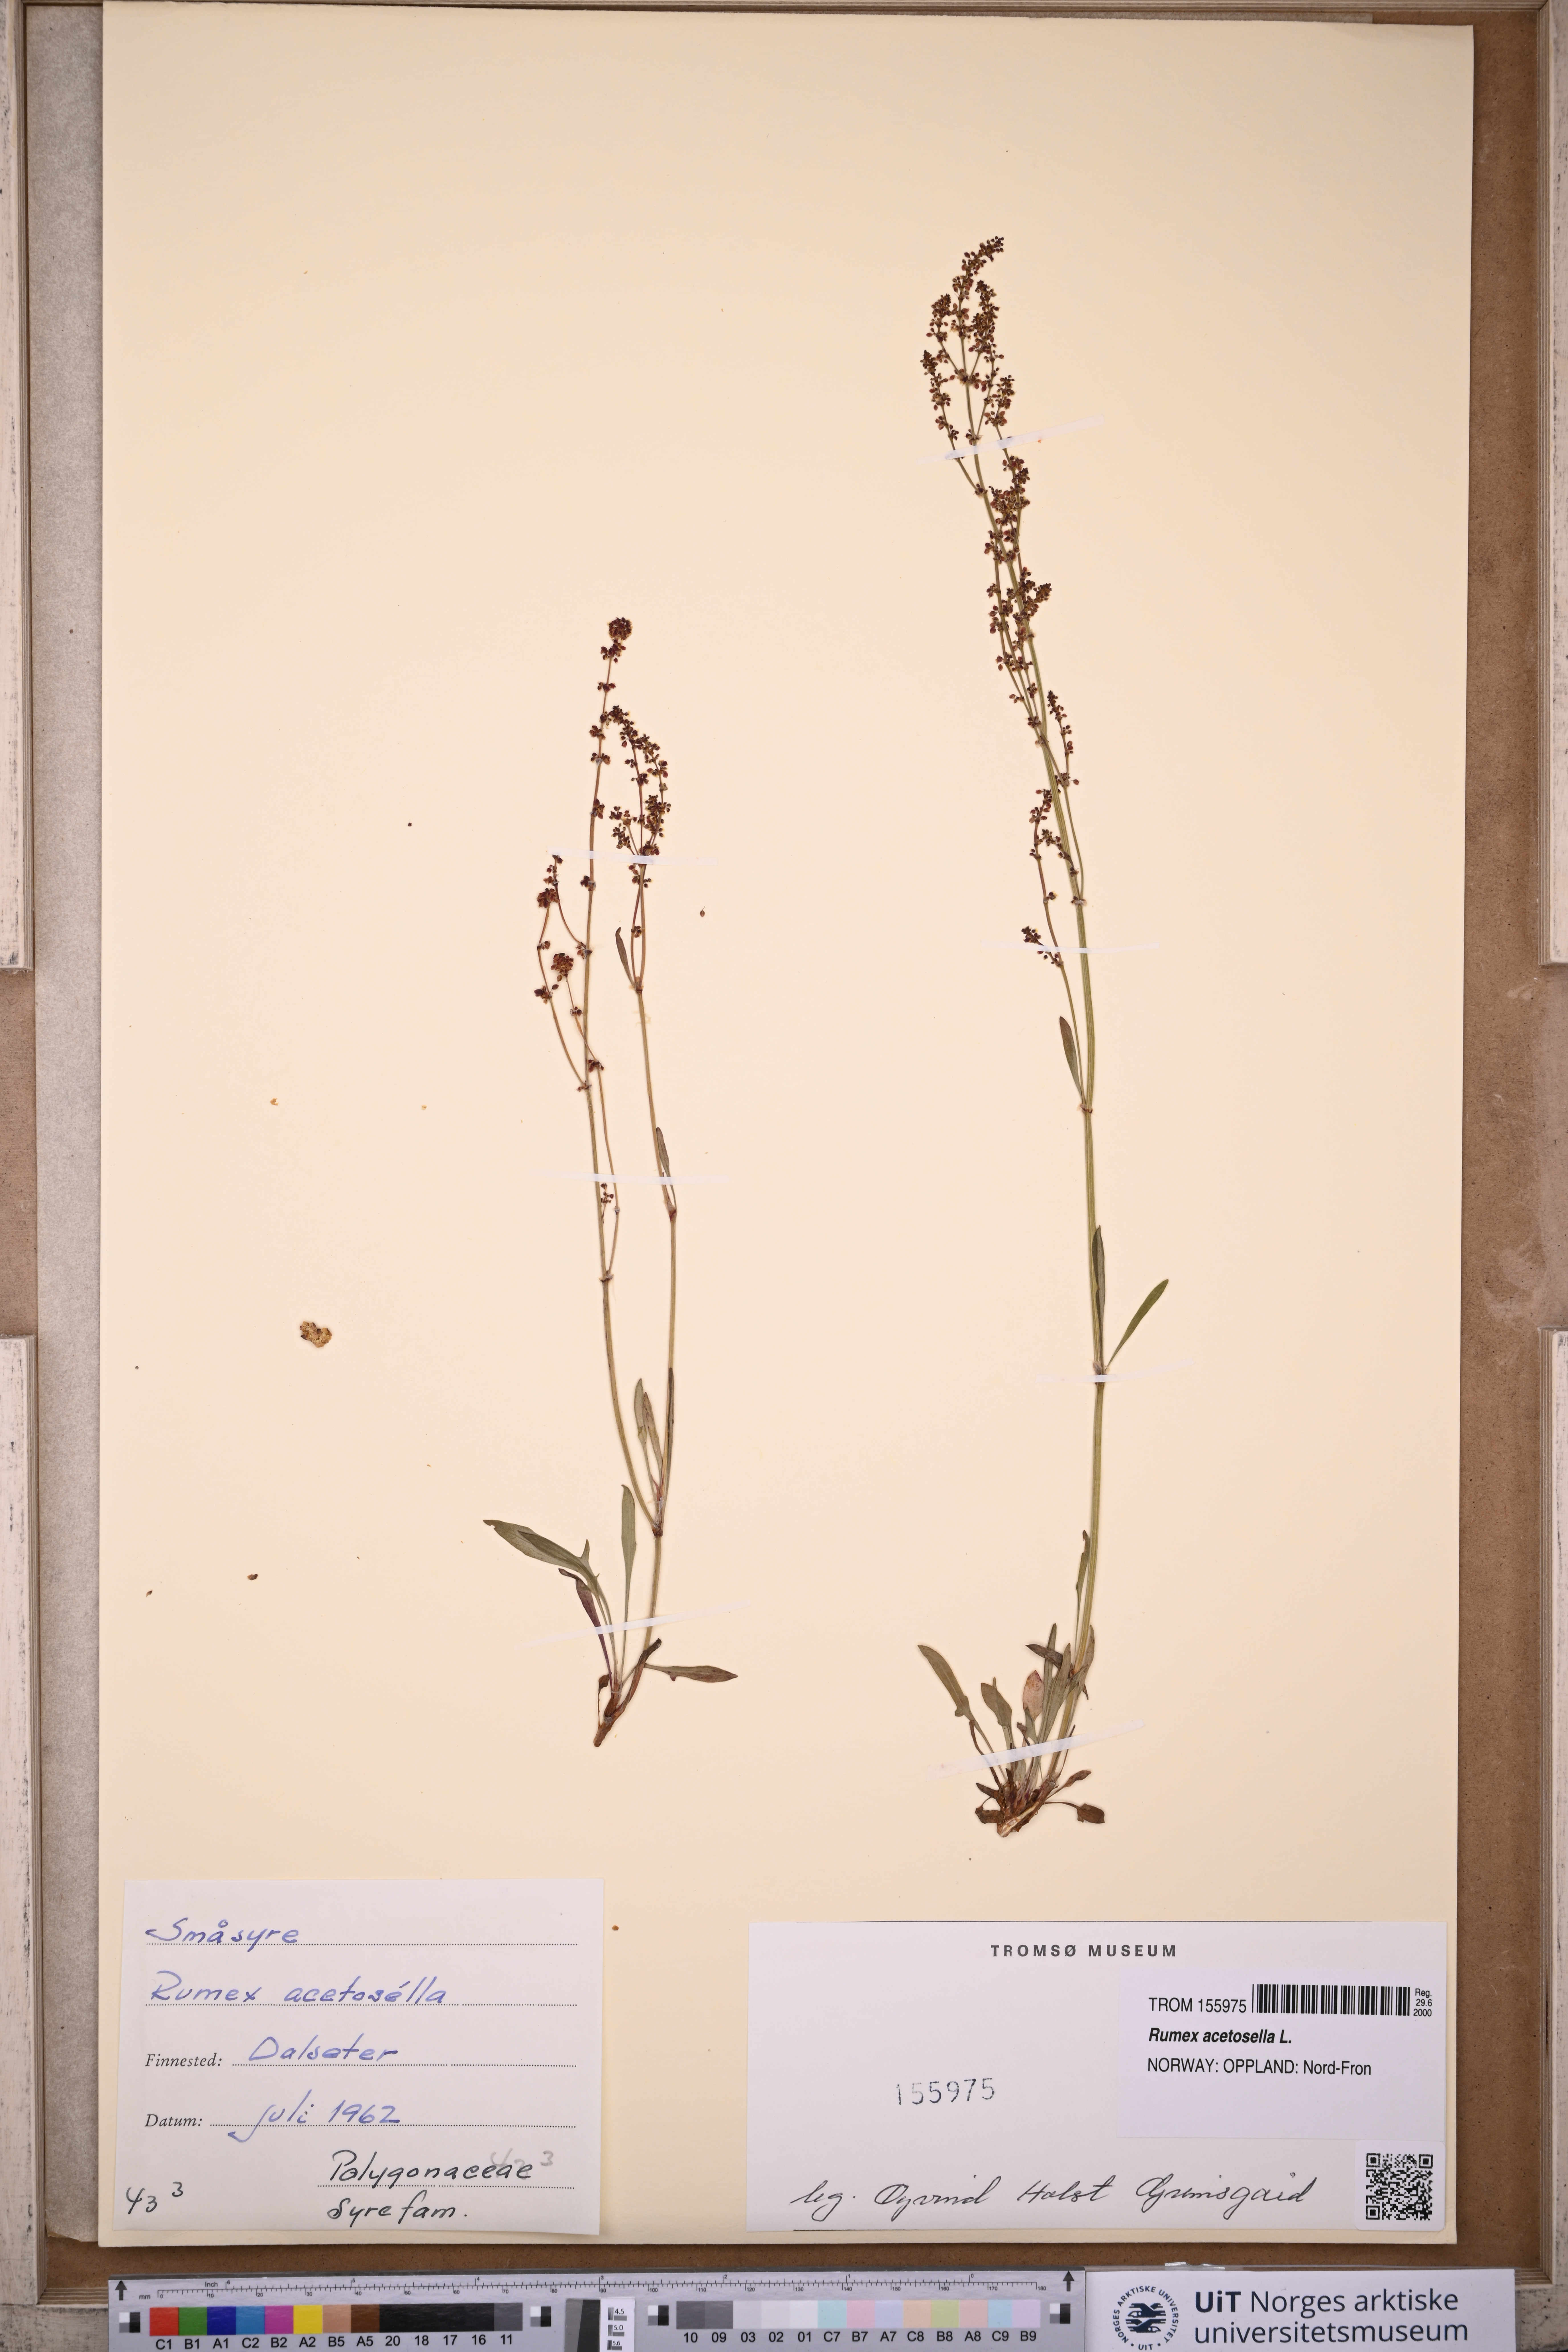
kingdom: Plantae
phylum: Tracheophyta
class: Magnoliopsida
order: Caryophyllales
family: Polygonaceae
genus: Rumex
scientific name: Rumex acetosella
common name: Common sheep sorrel
